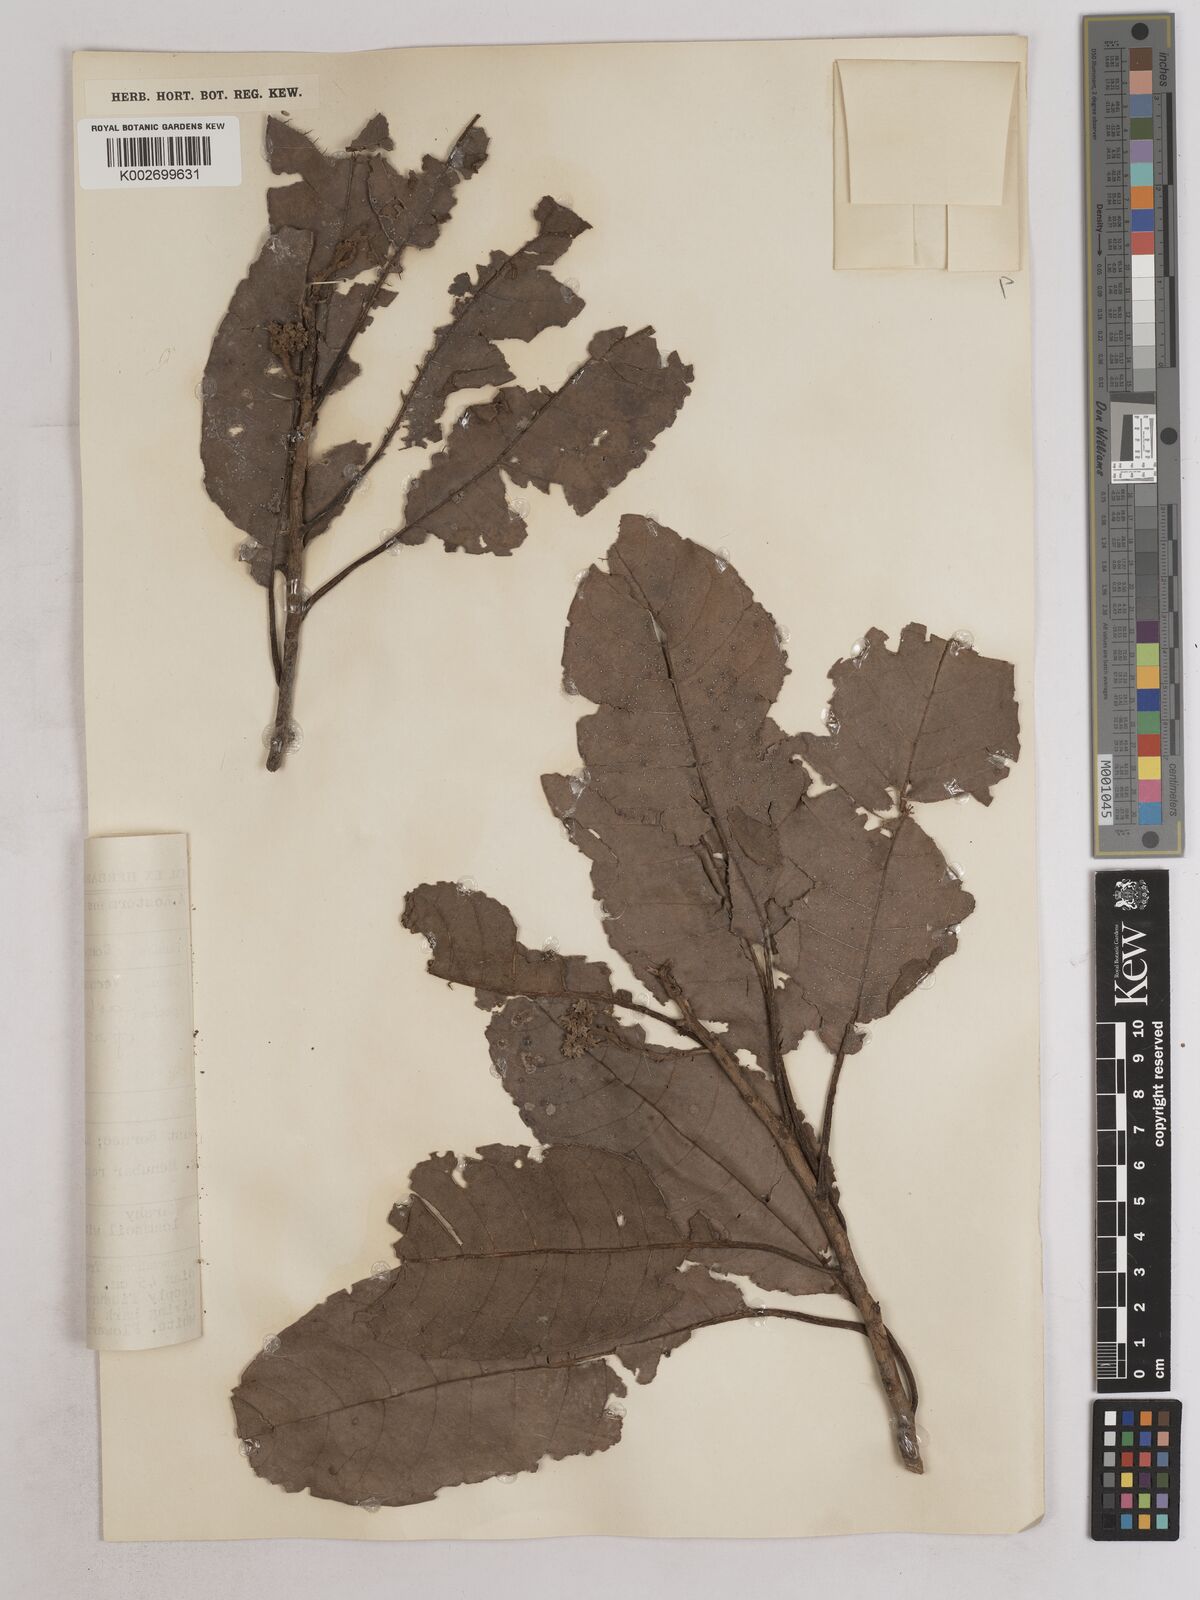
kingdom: Plantae
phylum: Tracheophyta
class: Magnoliopsida
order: Asterales
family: Asteraceae
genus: Strobocalyx
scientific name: Strobocalyx arborea
